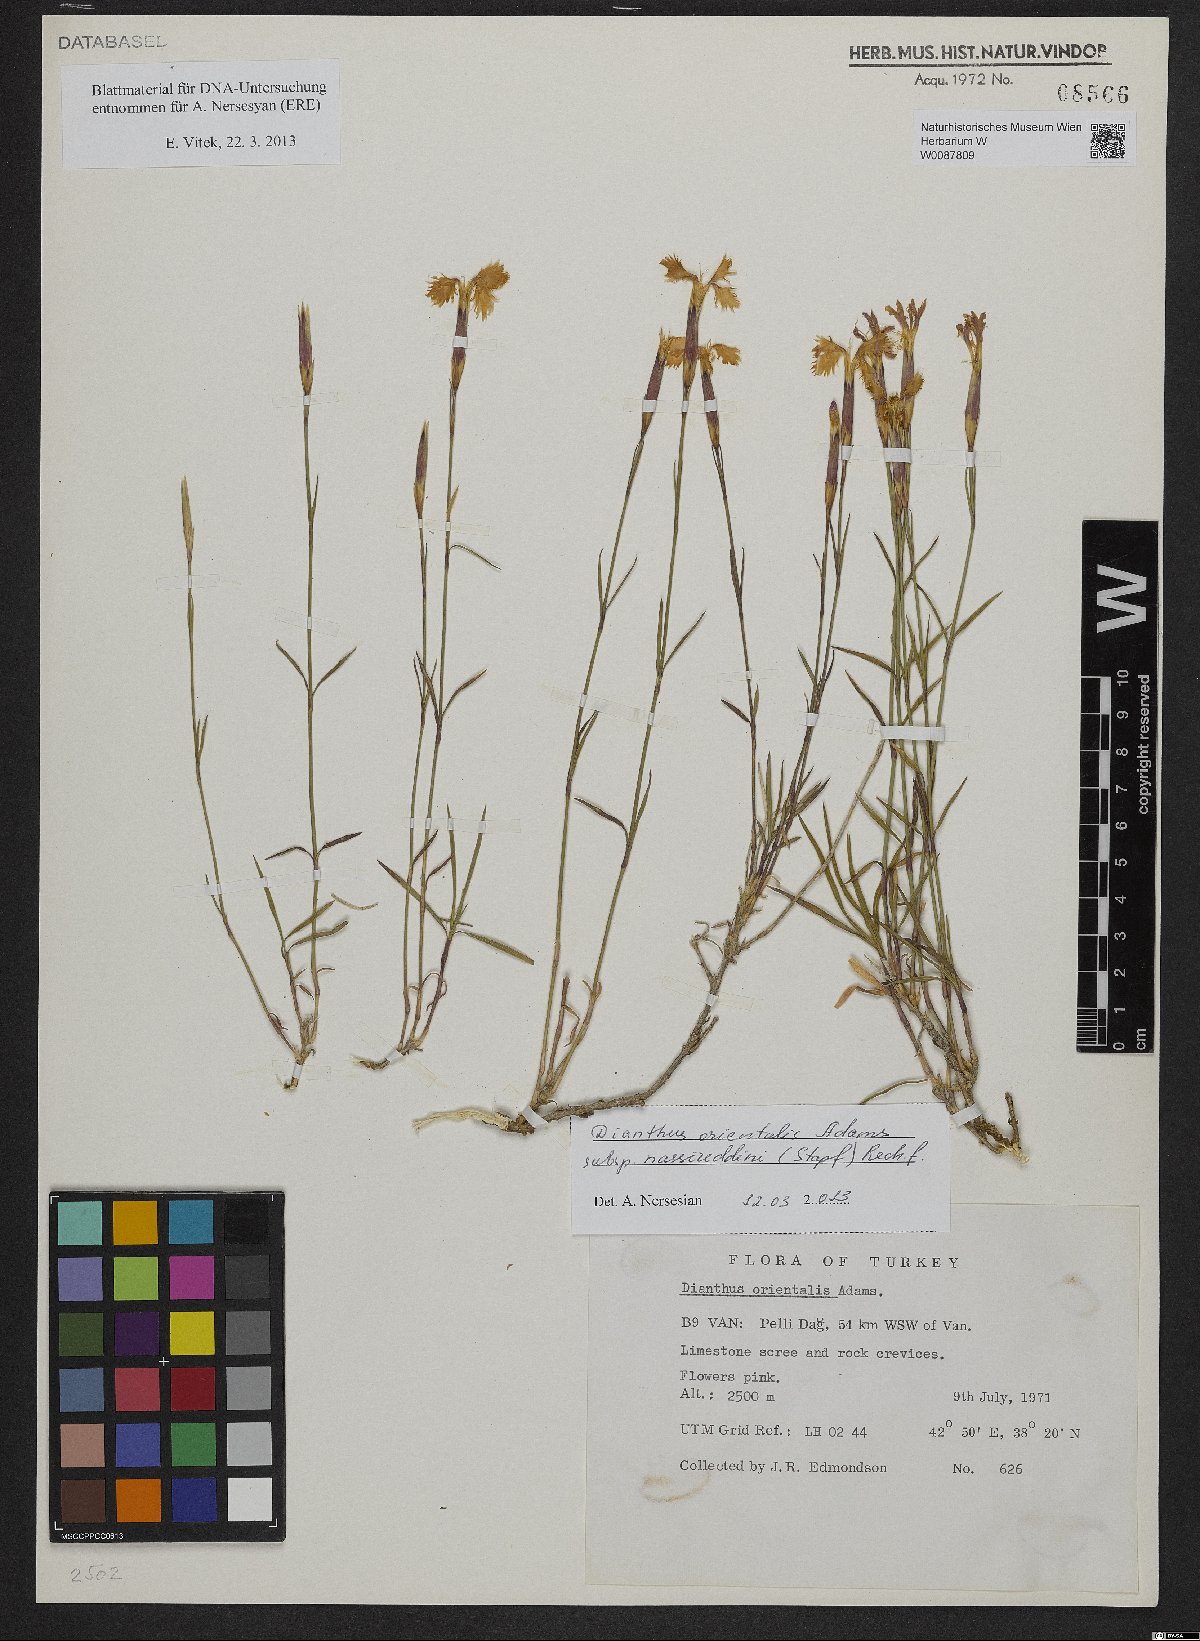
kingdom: Plantae
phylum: Tracheophyta
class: Magnoliopsida
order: Caryophyllales
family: Caryophyllaceae
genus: Dianthus
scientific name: Dianthus orientalis
